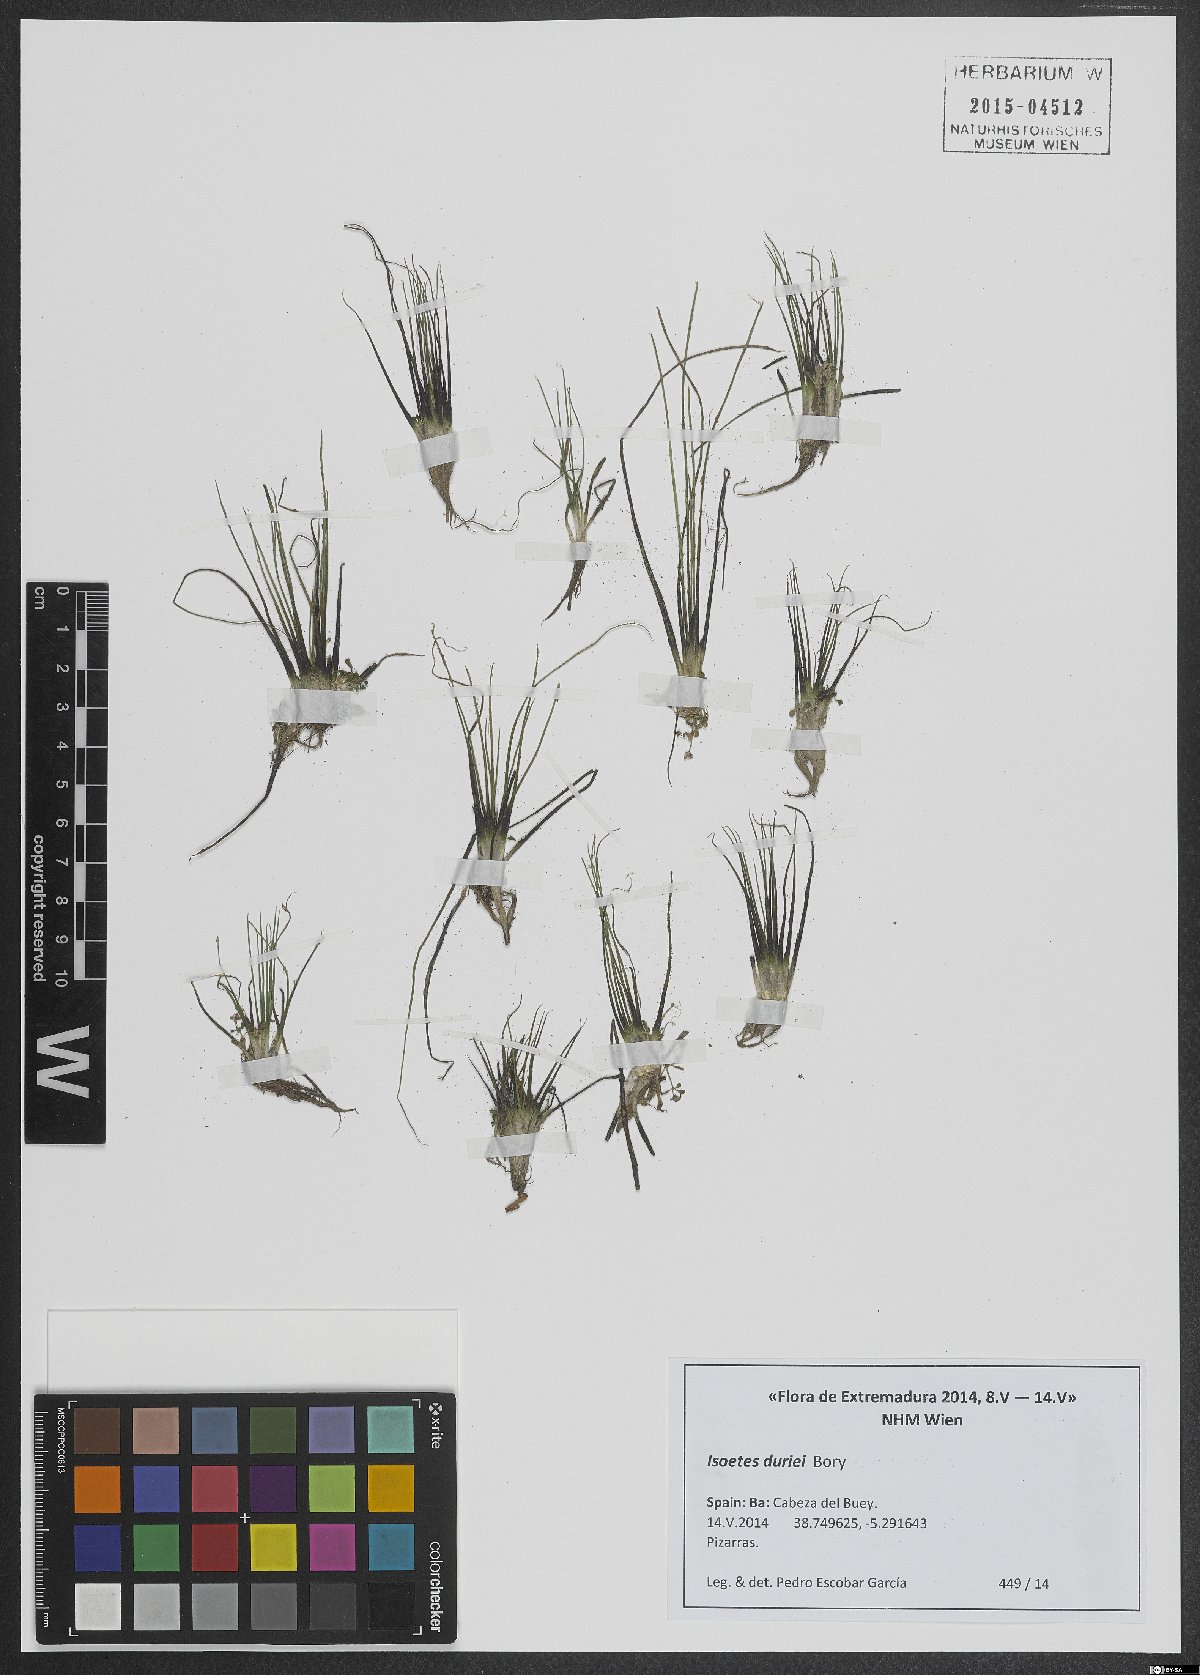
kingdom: Plantae
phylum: Tracheophyta
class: Lycopodiopsida
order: Isoetales
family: Isoetaceae
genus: Isoetes
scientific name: Isoetes duriei
